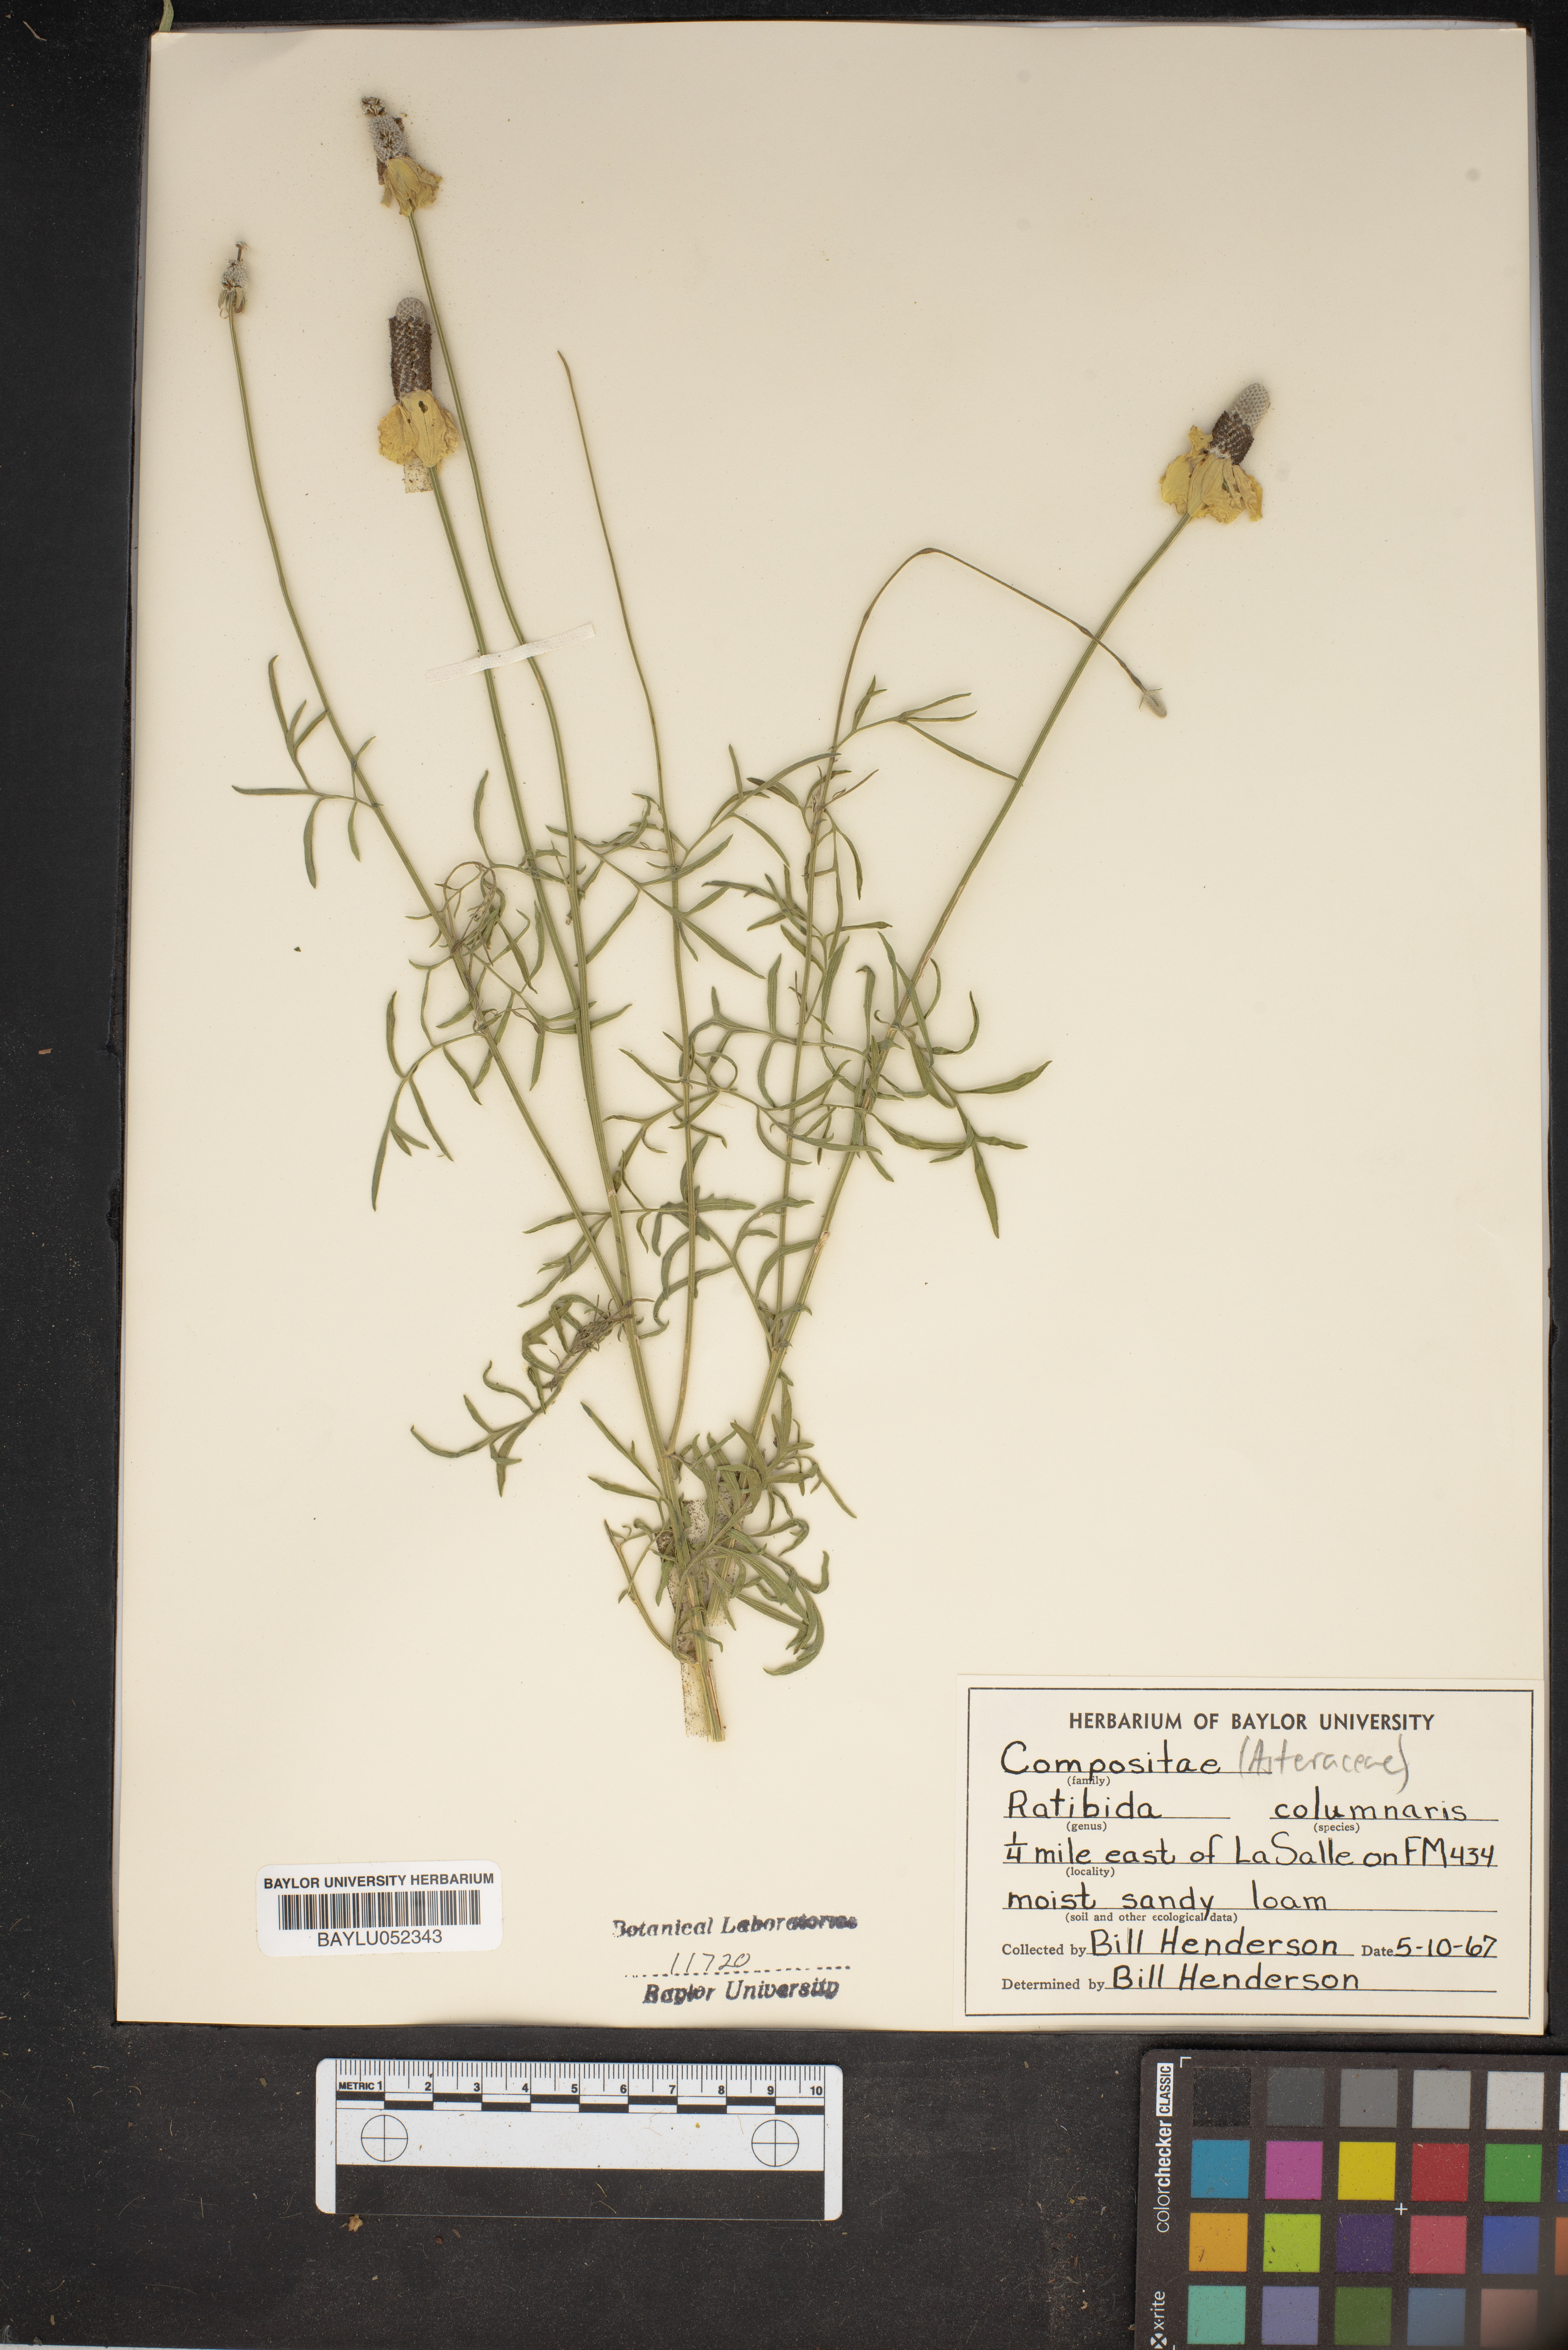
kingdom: Plantae
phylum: Tracheophyta
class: Magnoliopsida
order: Asterales
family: Asteraceae
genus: Ratibida
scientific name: Ratibida columnifera
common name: Prairie coneflower
